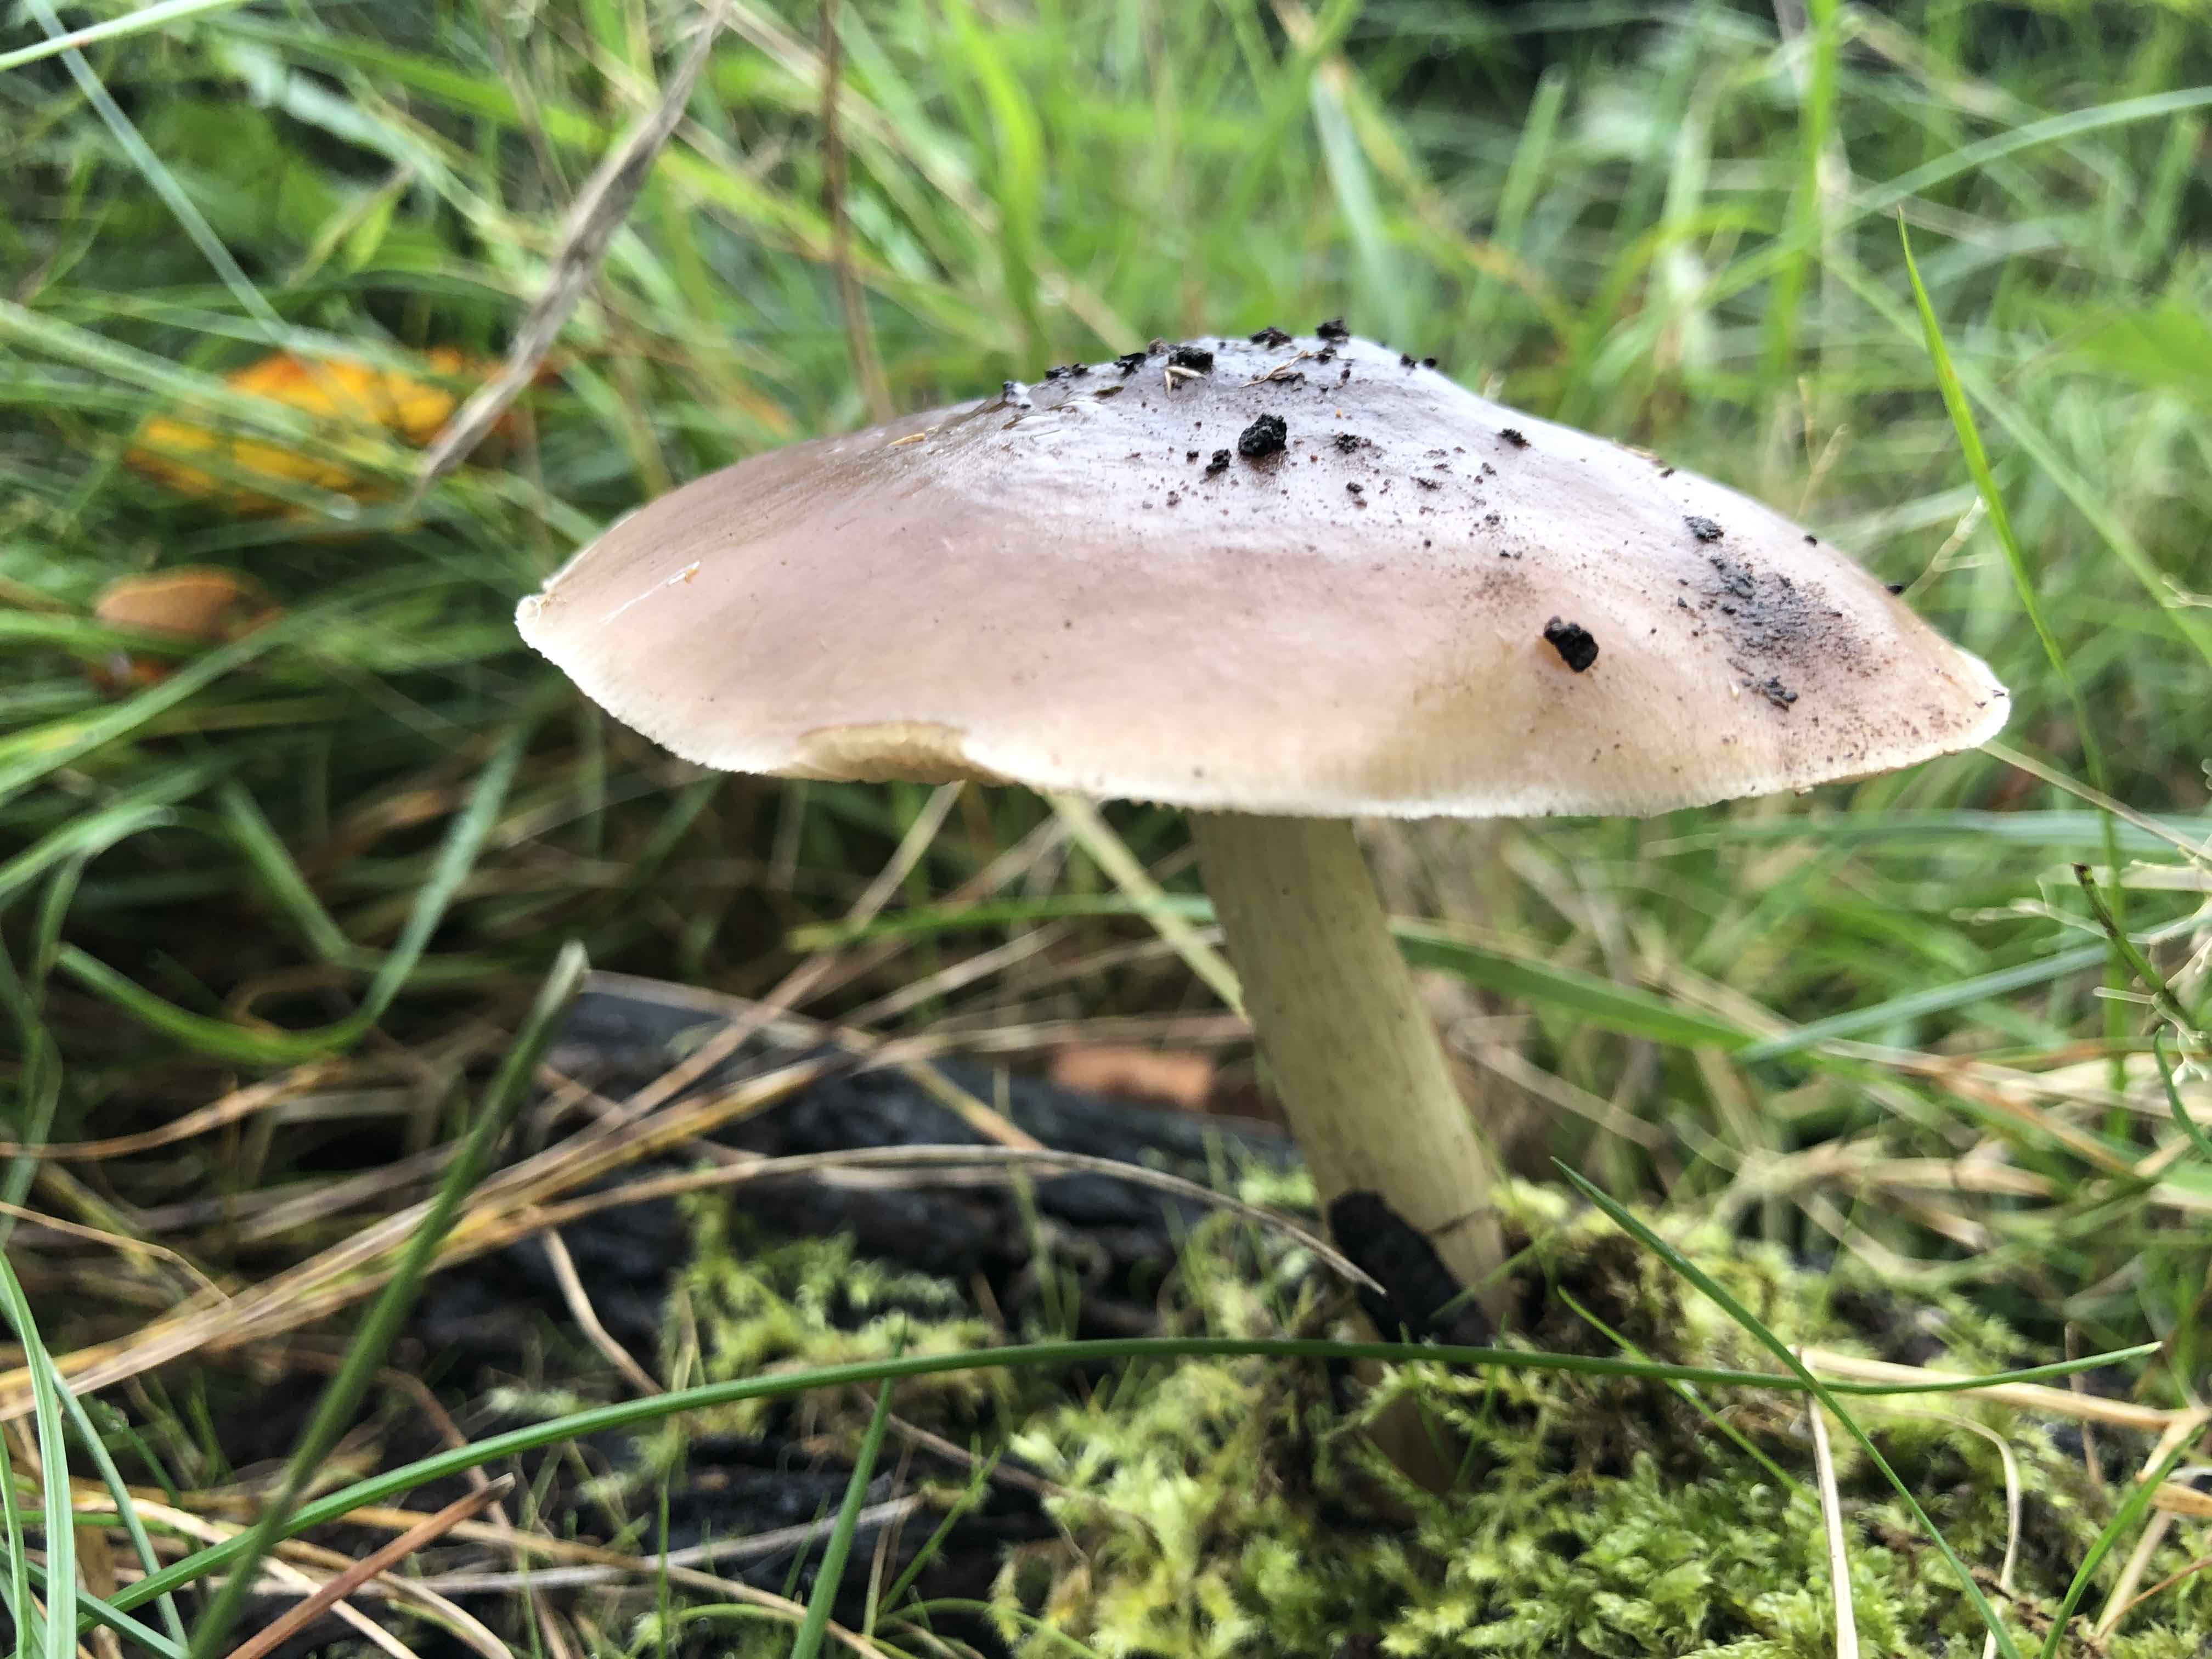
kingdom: Fungi
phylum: Basidiomycota
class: Agaricomycetes
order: Agaricales
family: Pluteaceae
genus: Pluteus
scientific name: Pluteus cervinus
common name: sodfarvet skærmhat
